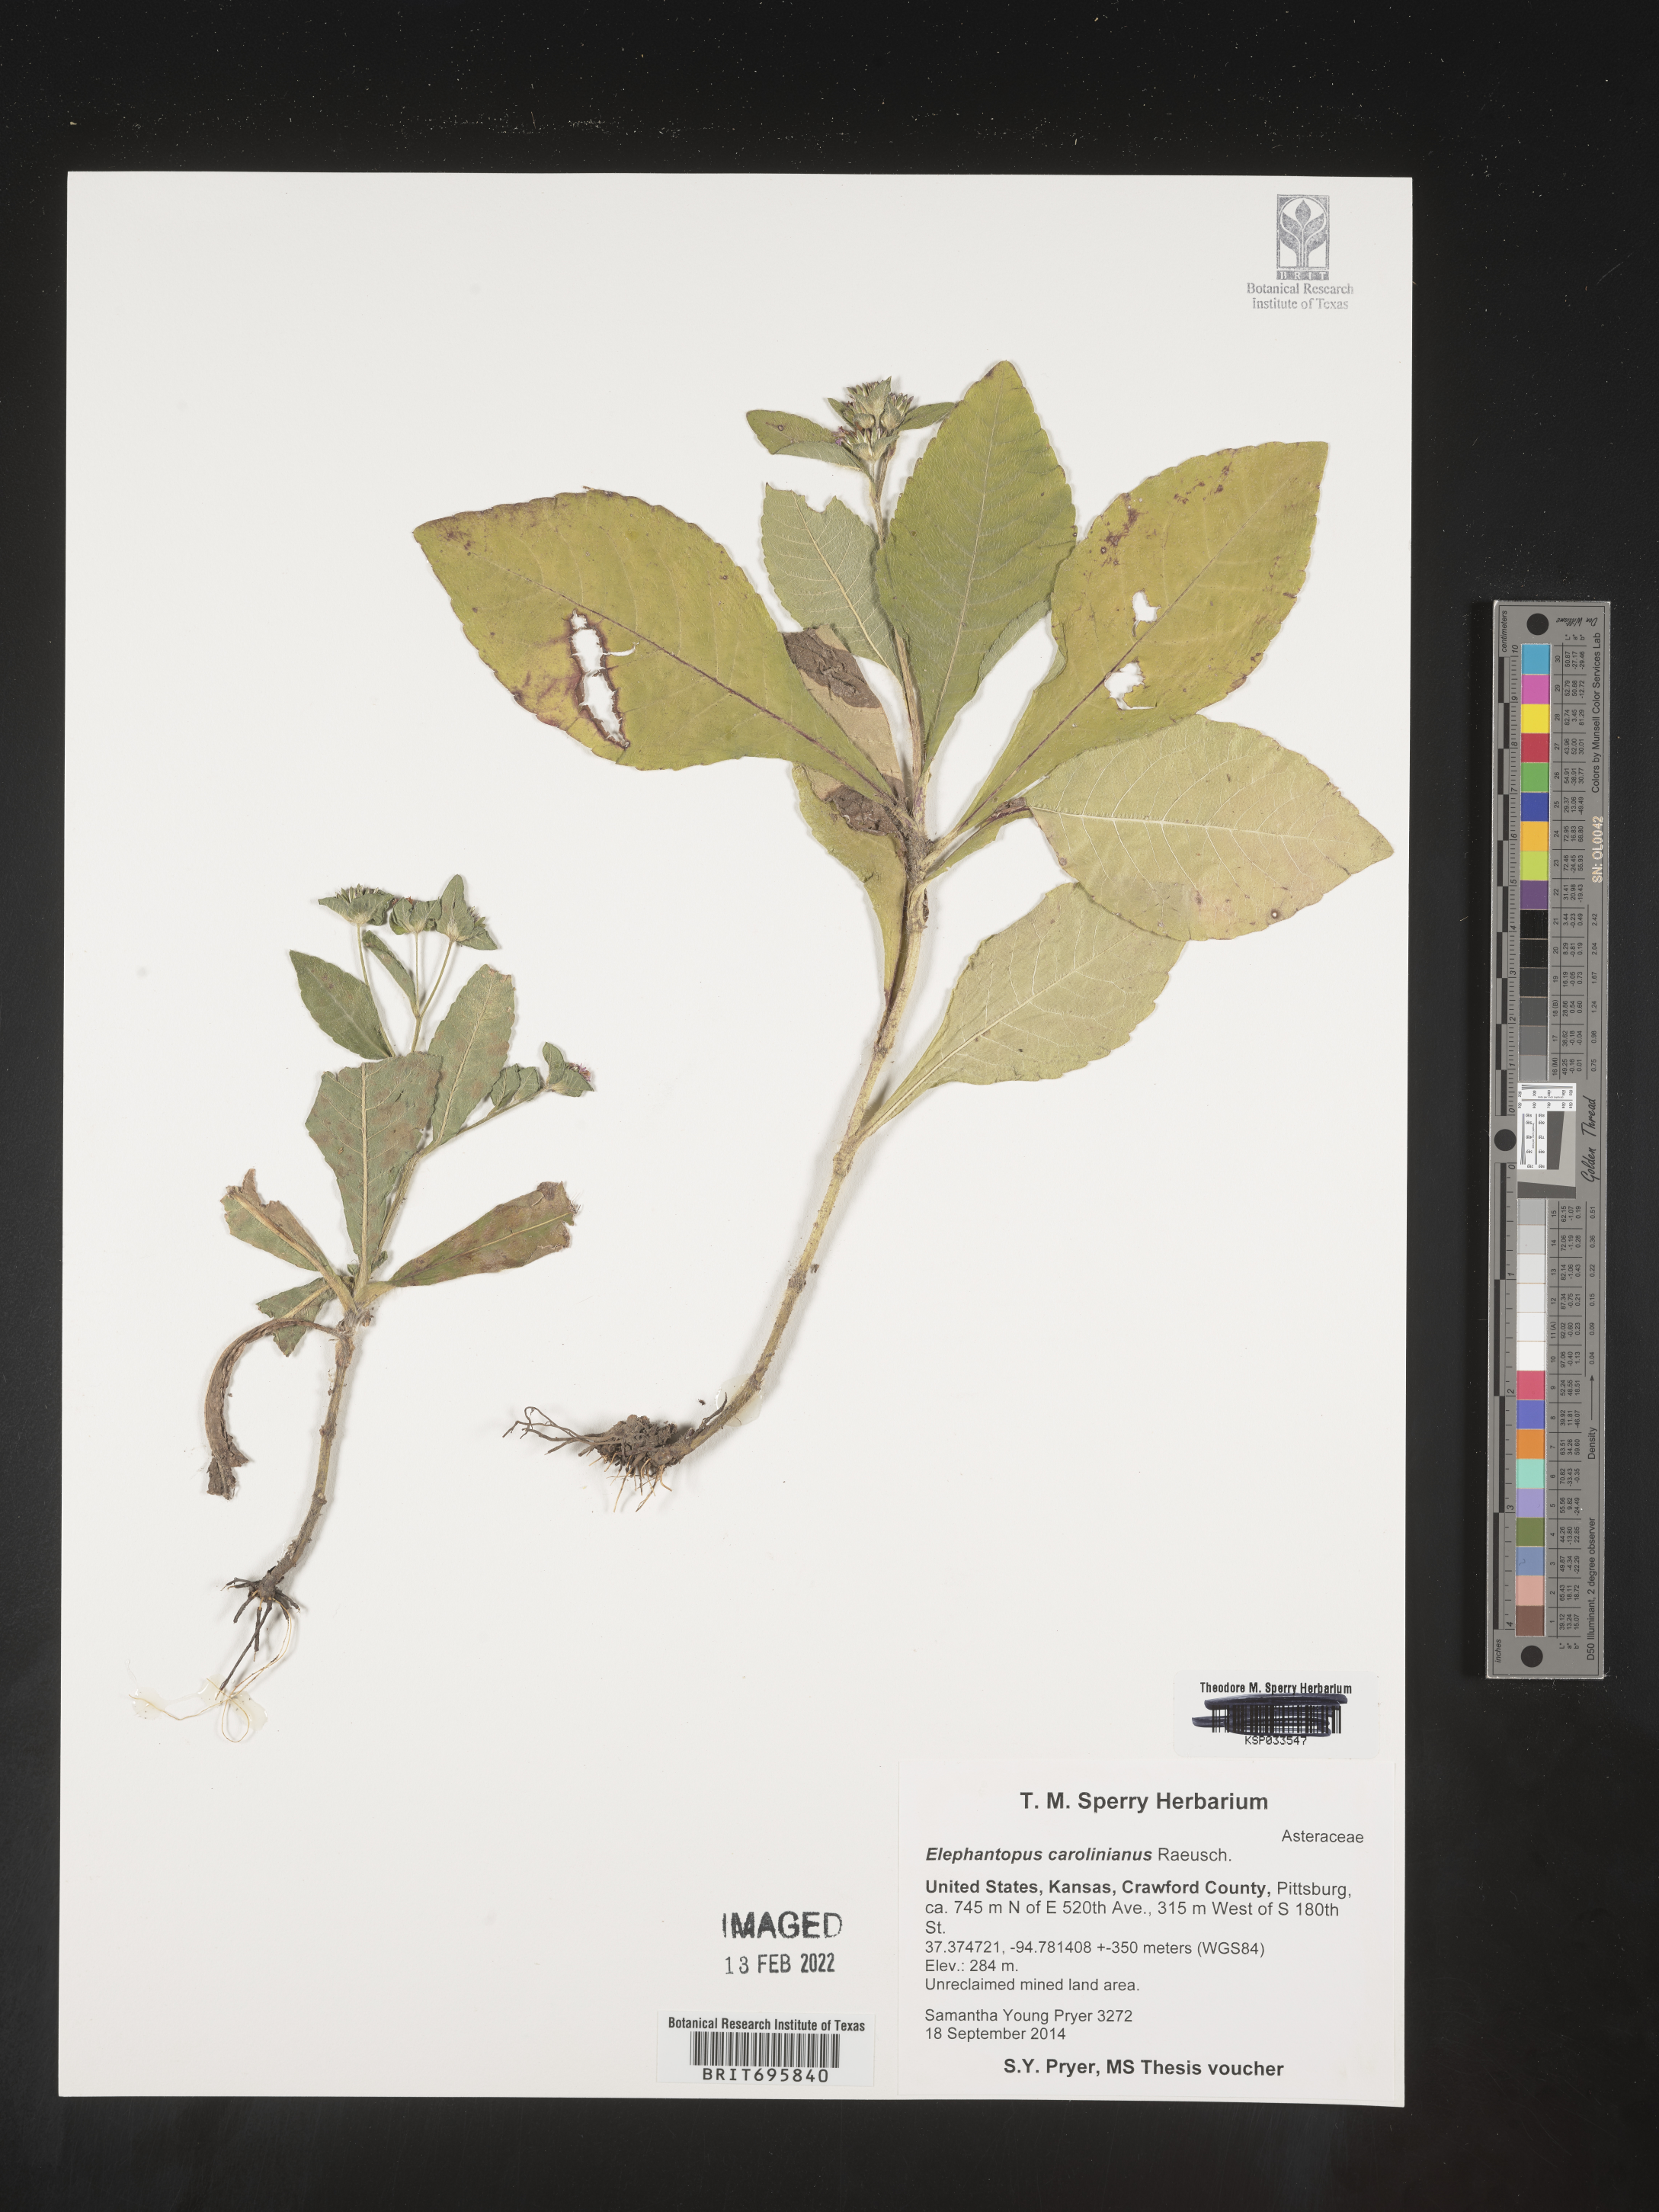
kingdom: Plantae
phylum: Tracheophyta
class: Magnoliopsida
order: Asterales
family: Asteraceae
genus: Elephantopus
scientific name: Elephantopus carolinianus
